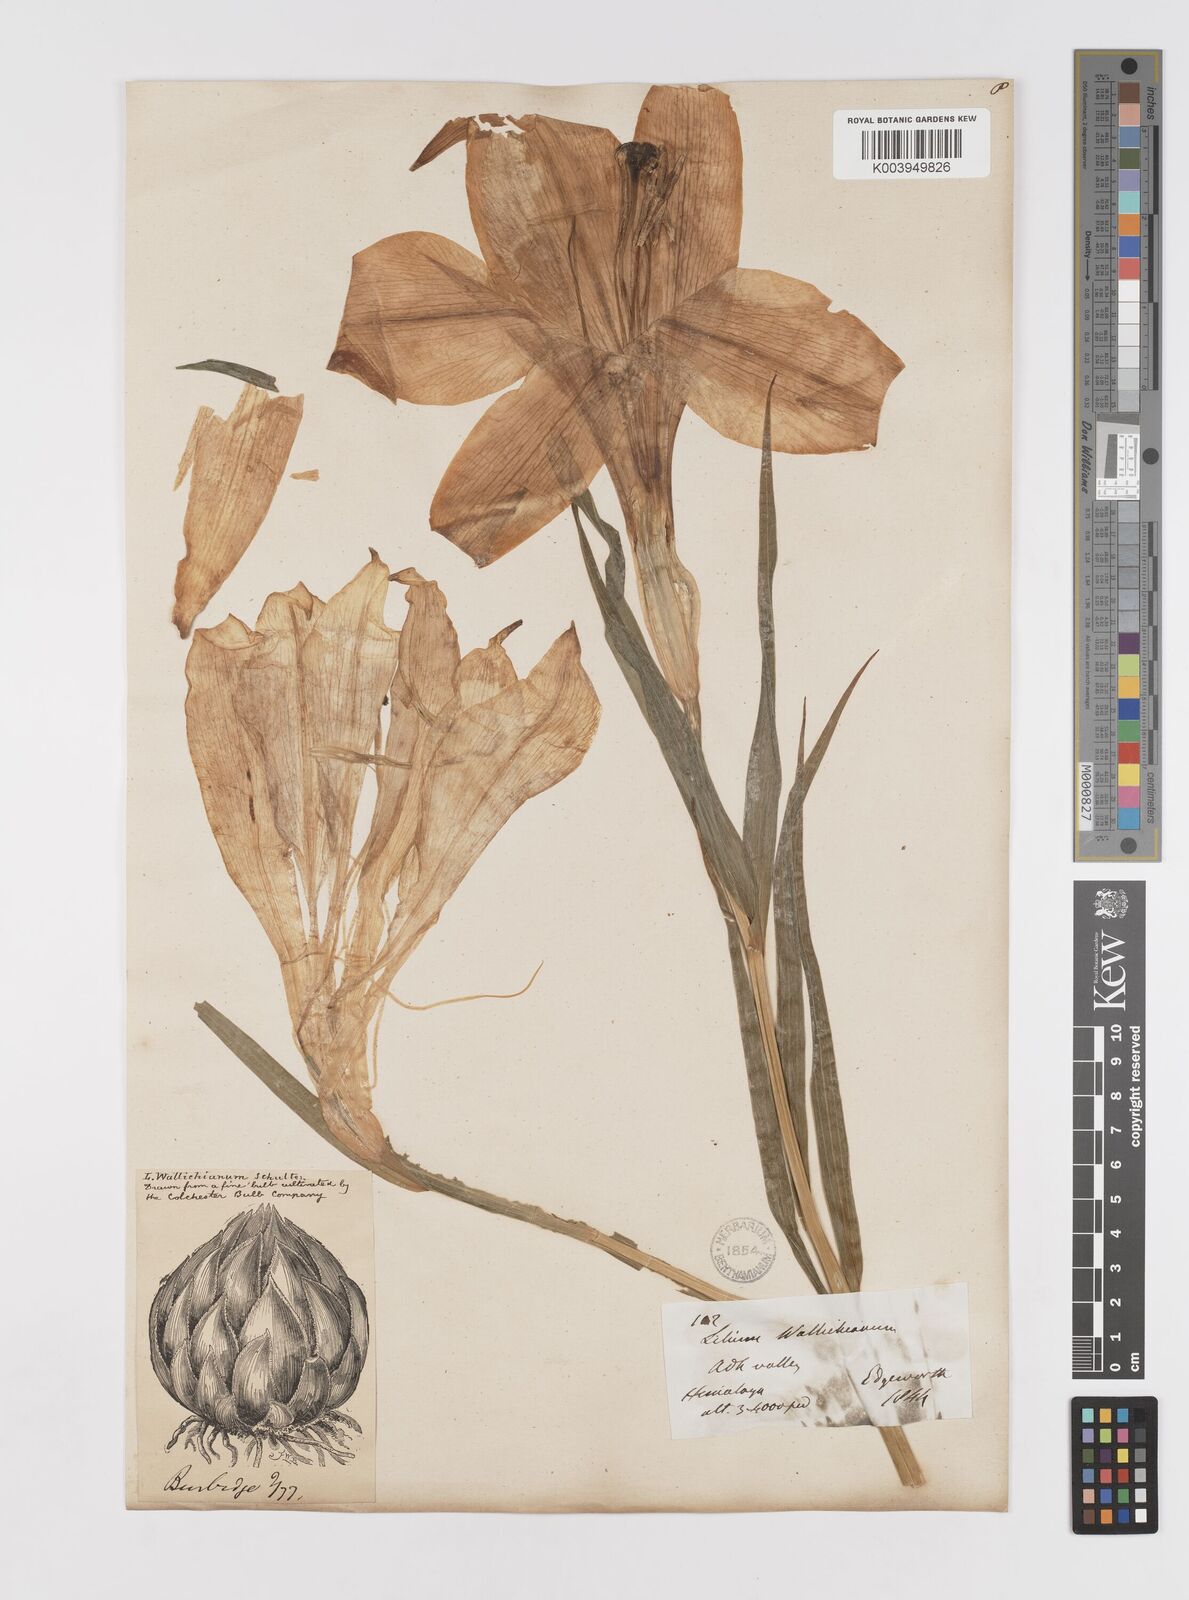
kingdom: Plantae
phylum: Tracheophyta
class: Liliopsida
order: Liliales
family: Liliaceae
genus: Lilium
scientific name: Lilium wallichianum
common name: Wallich's lily
